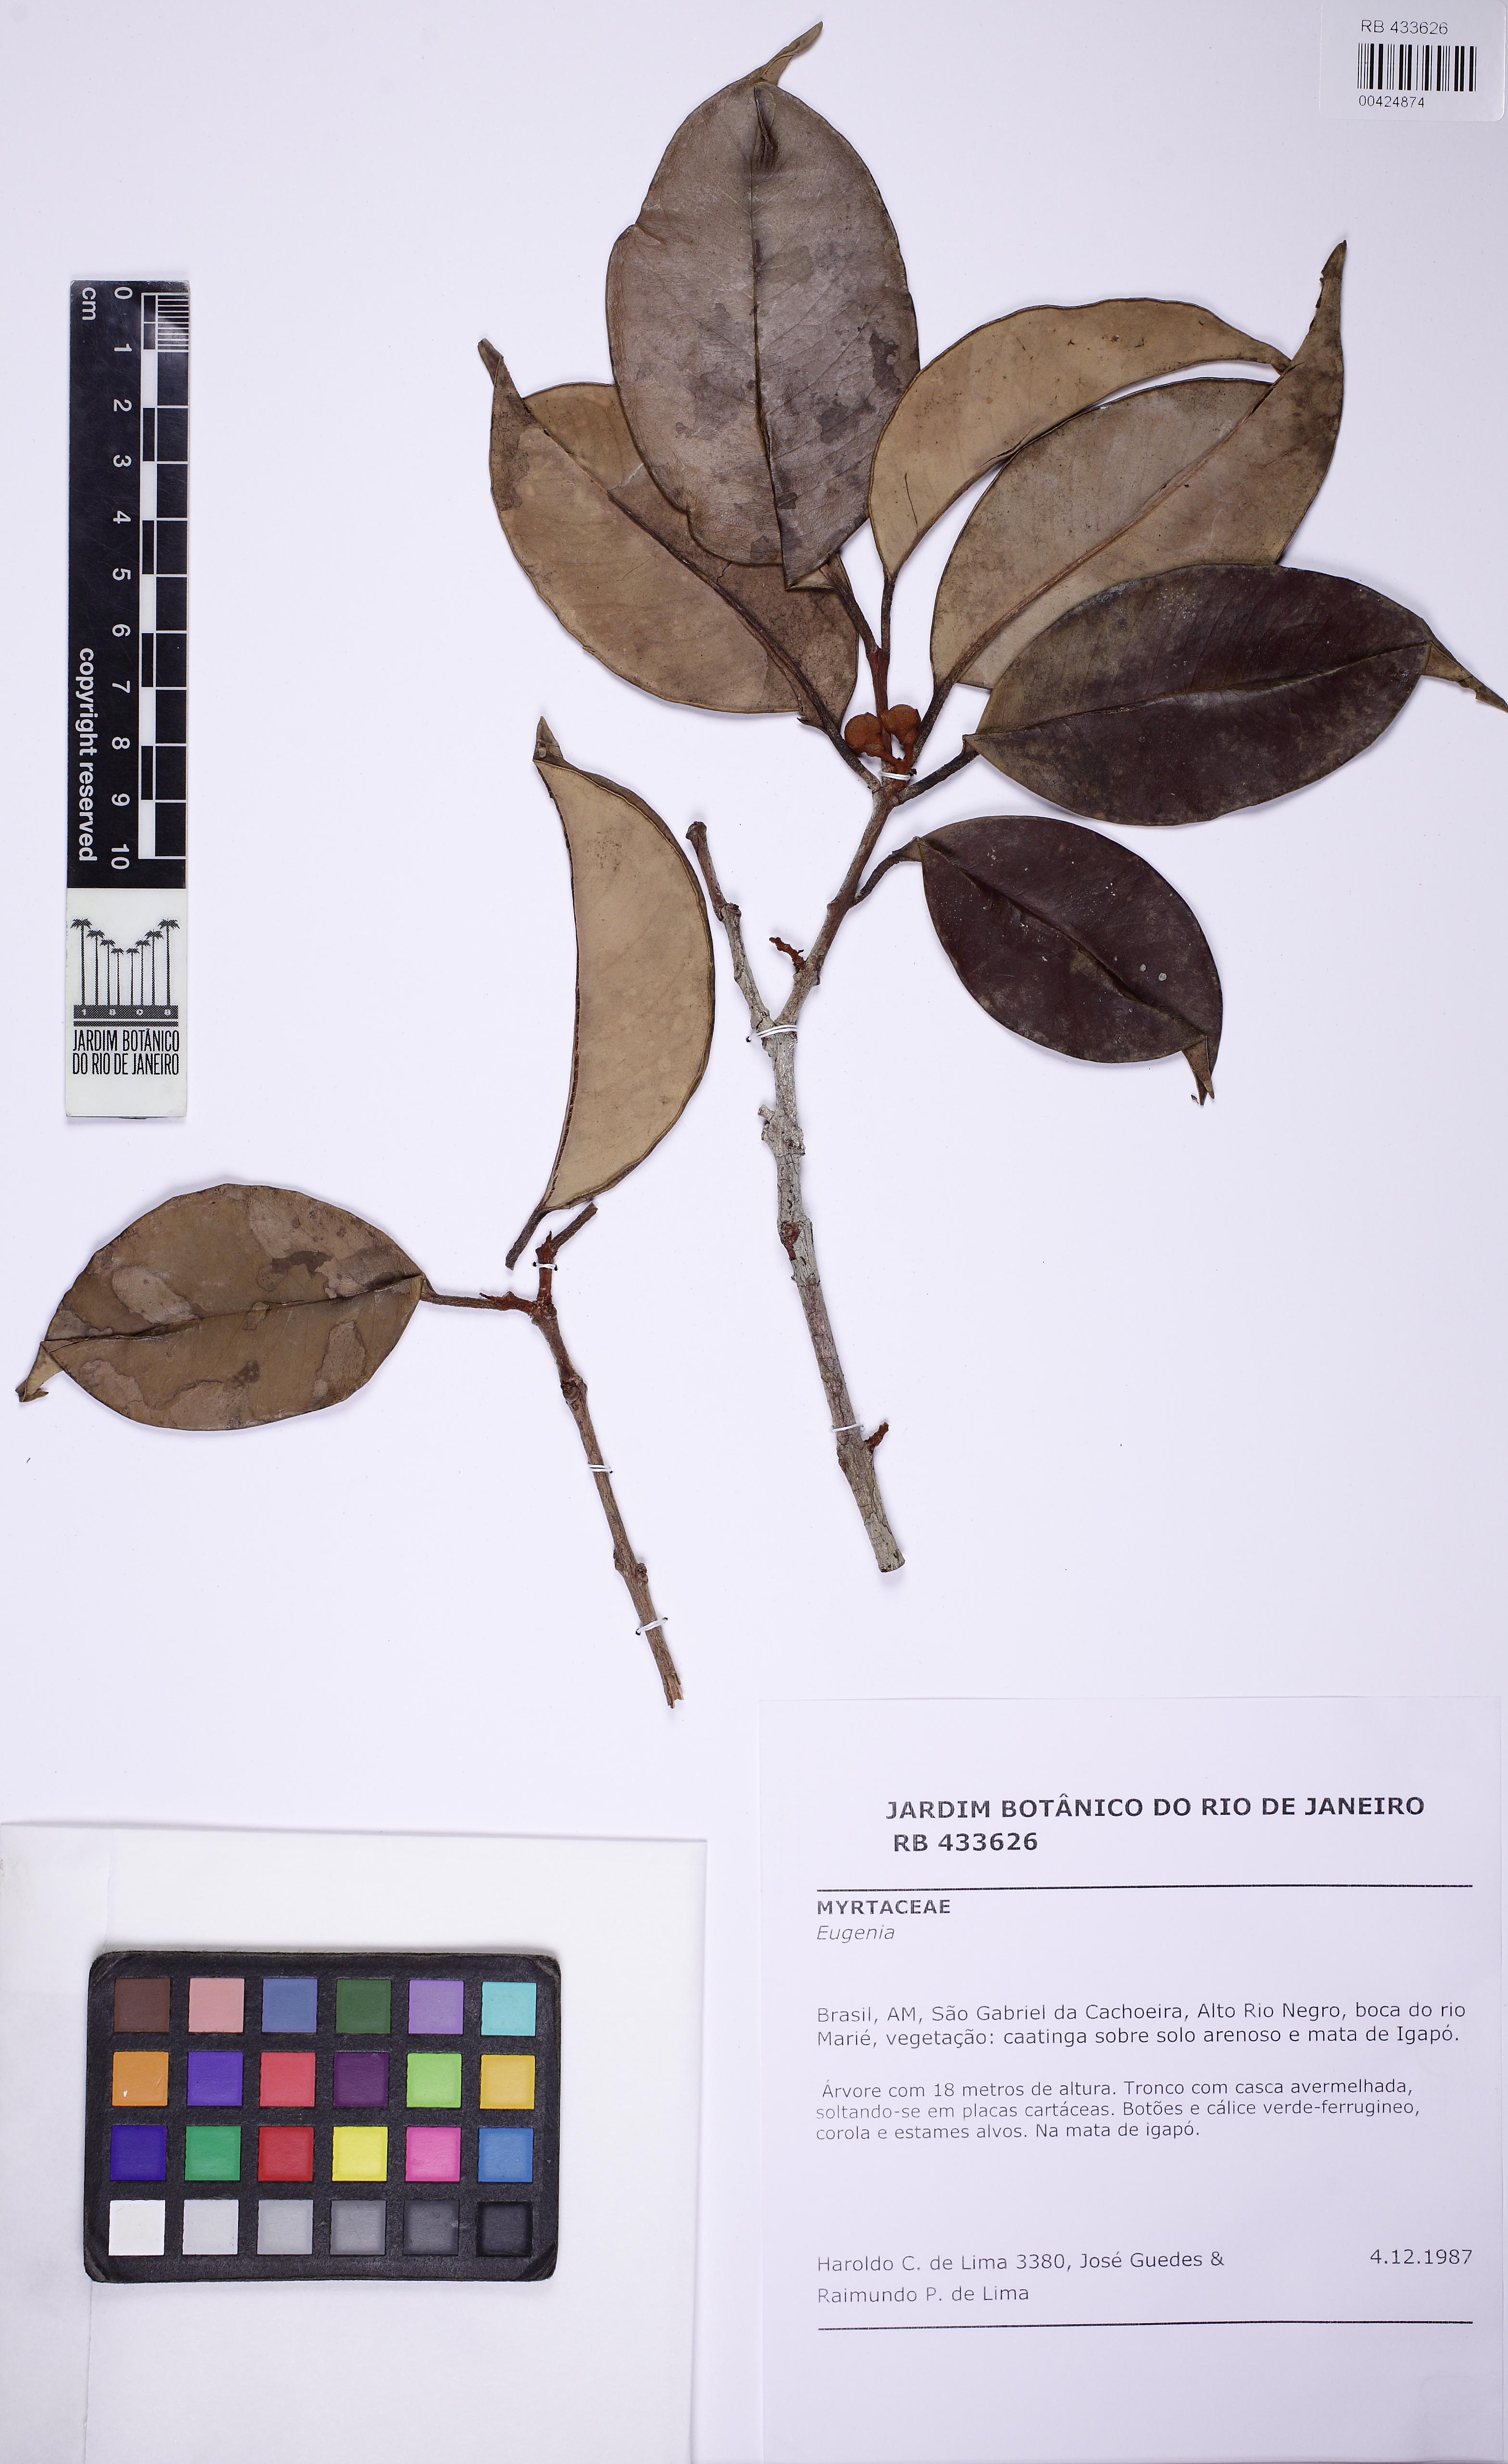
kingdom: Plantae
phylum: Tracheophyta
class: Magnoliopsida
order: Myrtales
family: Myrtaceae
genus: Eugenia
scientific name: Eugenia marieensis
